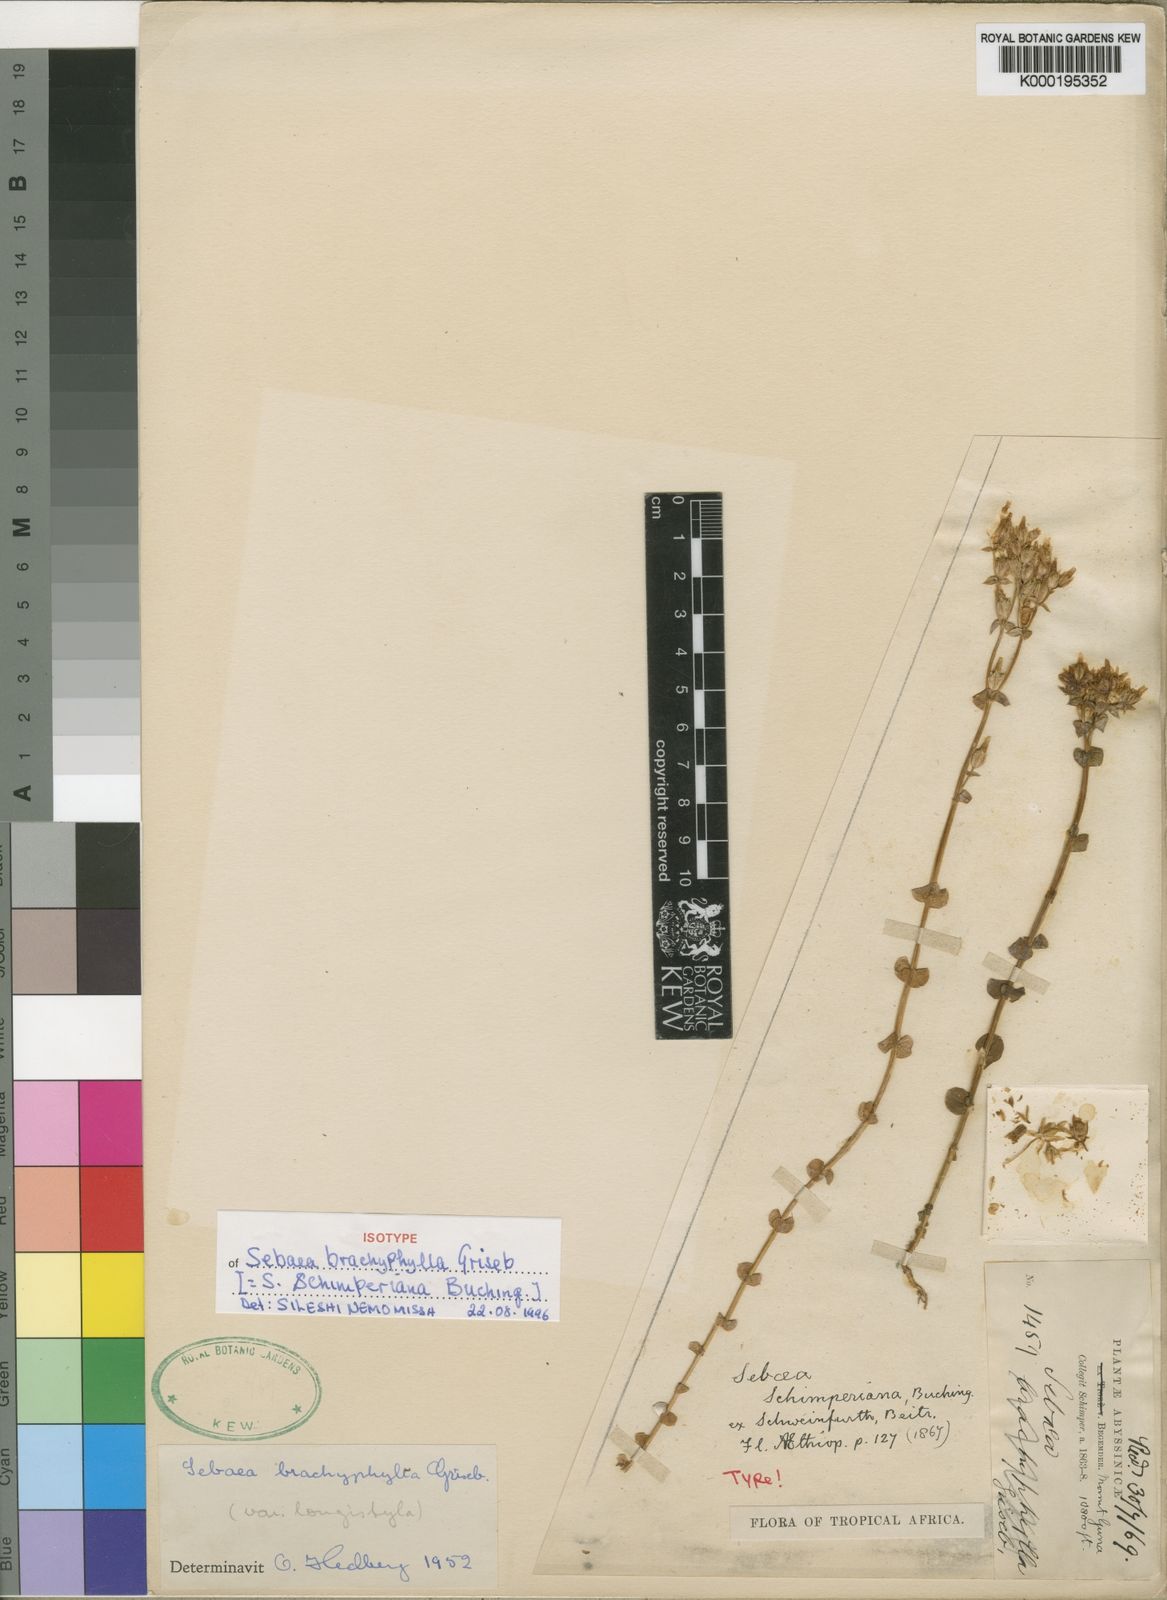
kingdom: Plantae
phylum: Tracheophyta
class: Magnoliopsida
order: Gentianales
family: Gentianaceae
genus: Sebaea
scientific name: Sebaea brachyphylla
